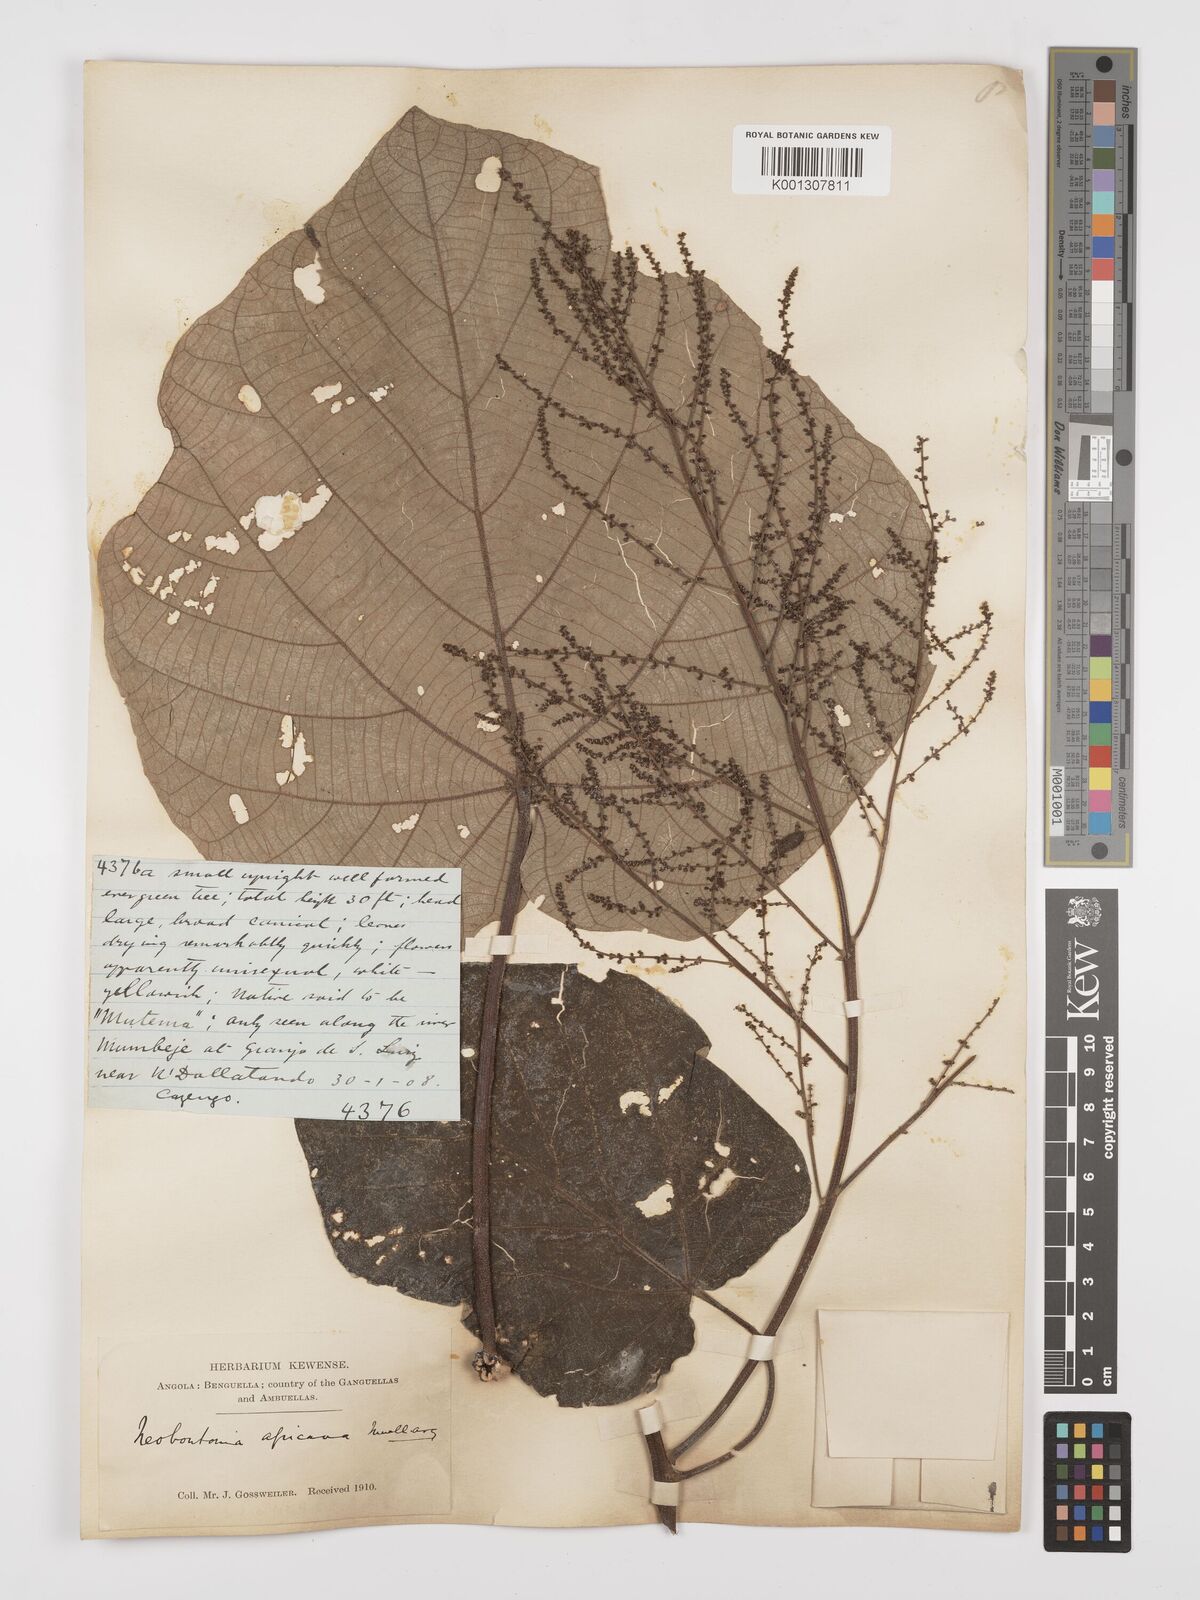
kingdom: Plantae
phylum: Tracheophyta
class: Magnoliopsida
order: Malpighiales
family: Euphorbiaceae
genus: Neoboutonia
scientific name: Neoboutonia
